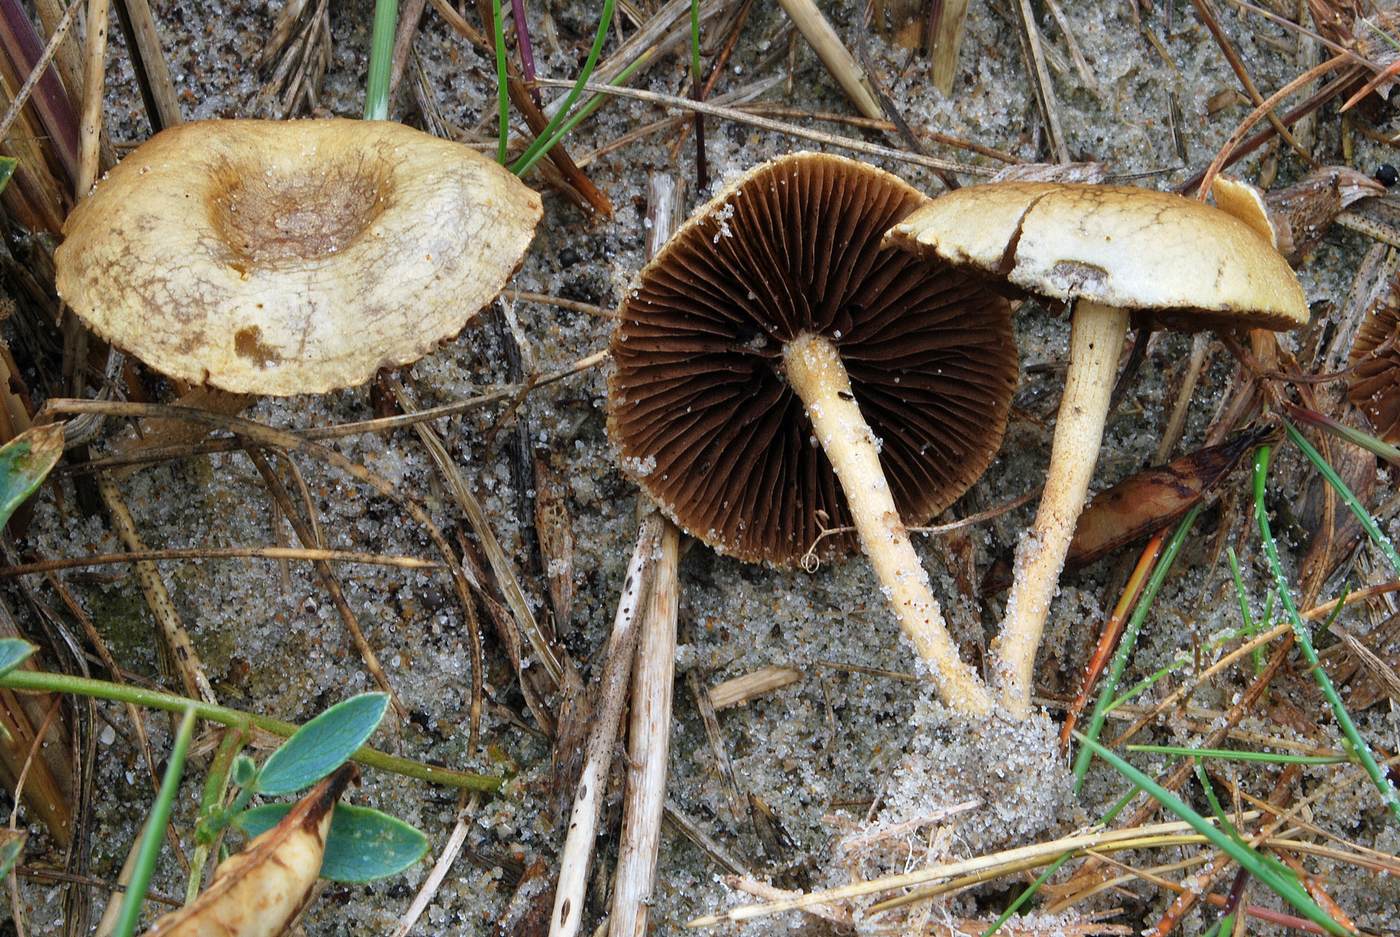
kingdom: Fungi
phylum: Basidiomycota
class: Agaricomycetes
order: Agaricales
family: Strophariaceae
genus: Agrocybe
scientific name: Agrocybe pediades
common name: almindelig agerhat
